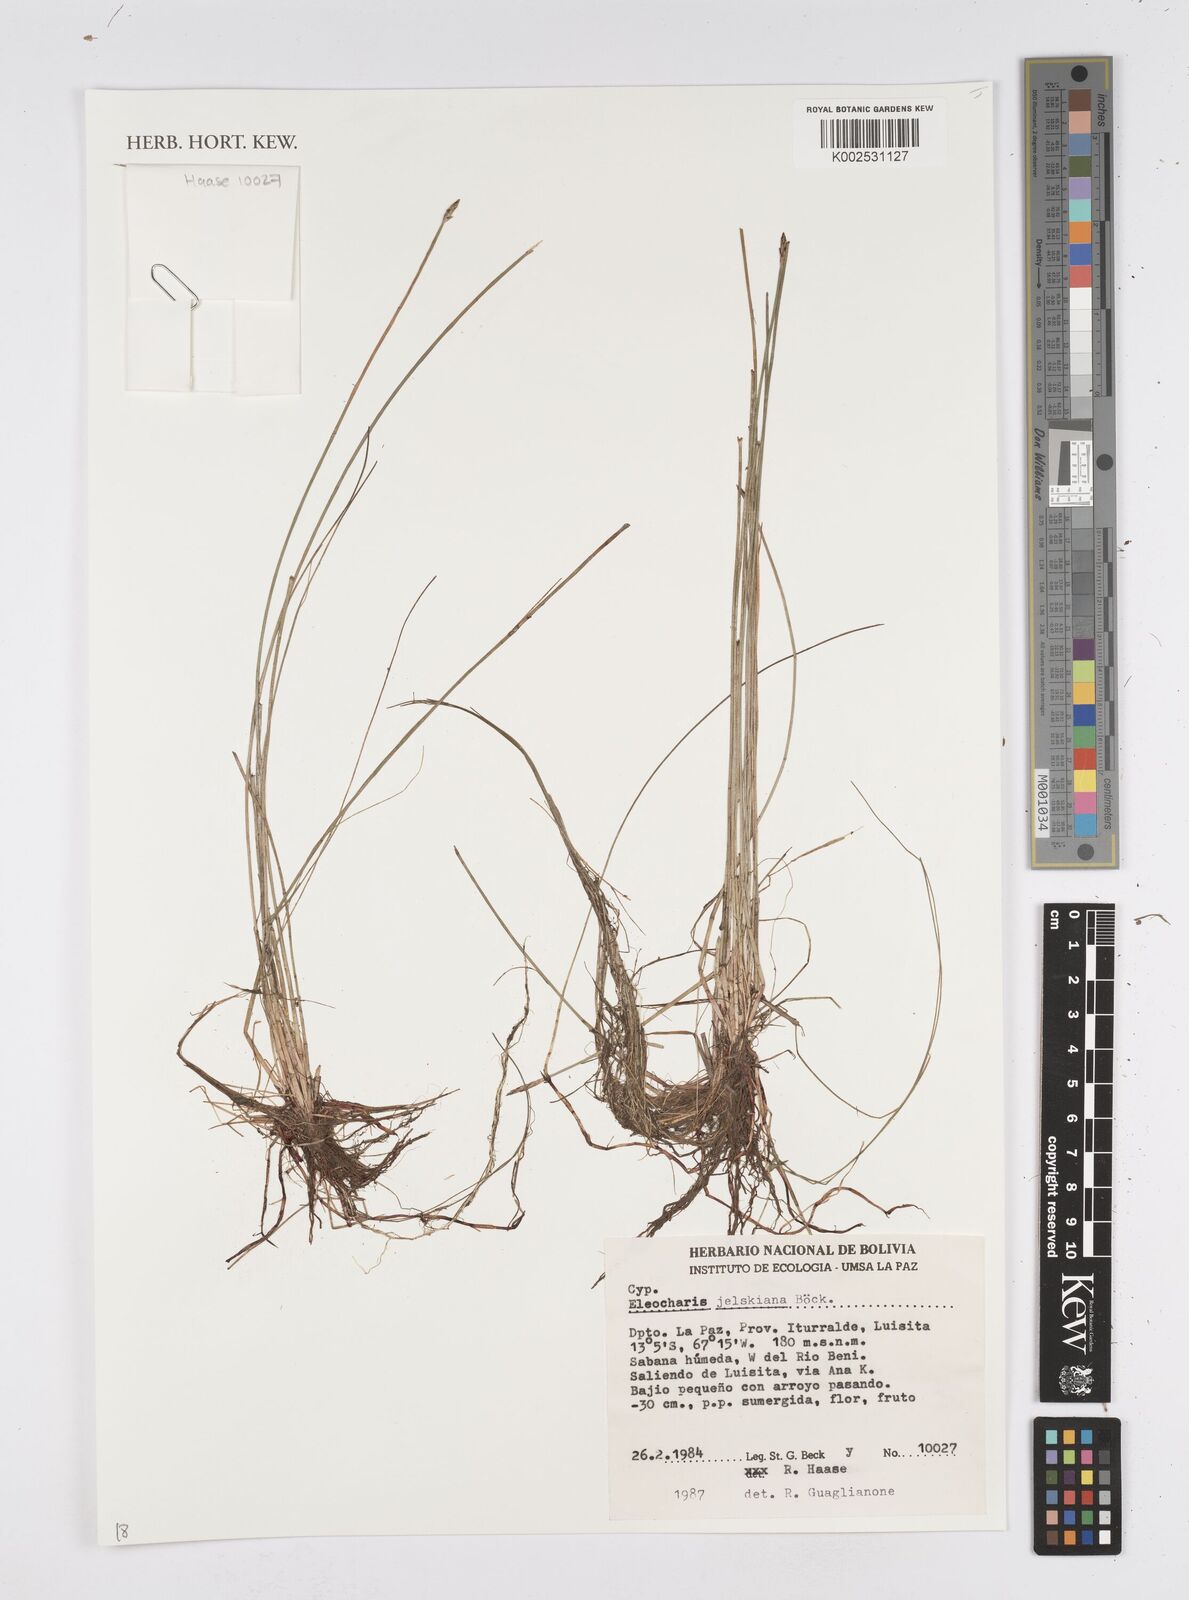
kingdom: Plantae
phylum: Tracheophyta
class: Liliopsida
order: Poales
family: Cyperaceae
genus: Eleocharis
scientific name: Eleocharis jelskiana
